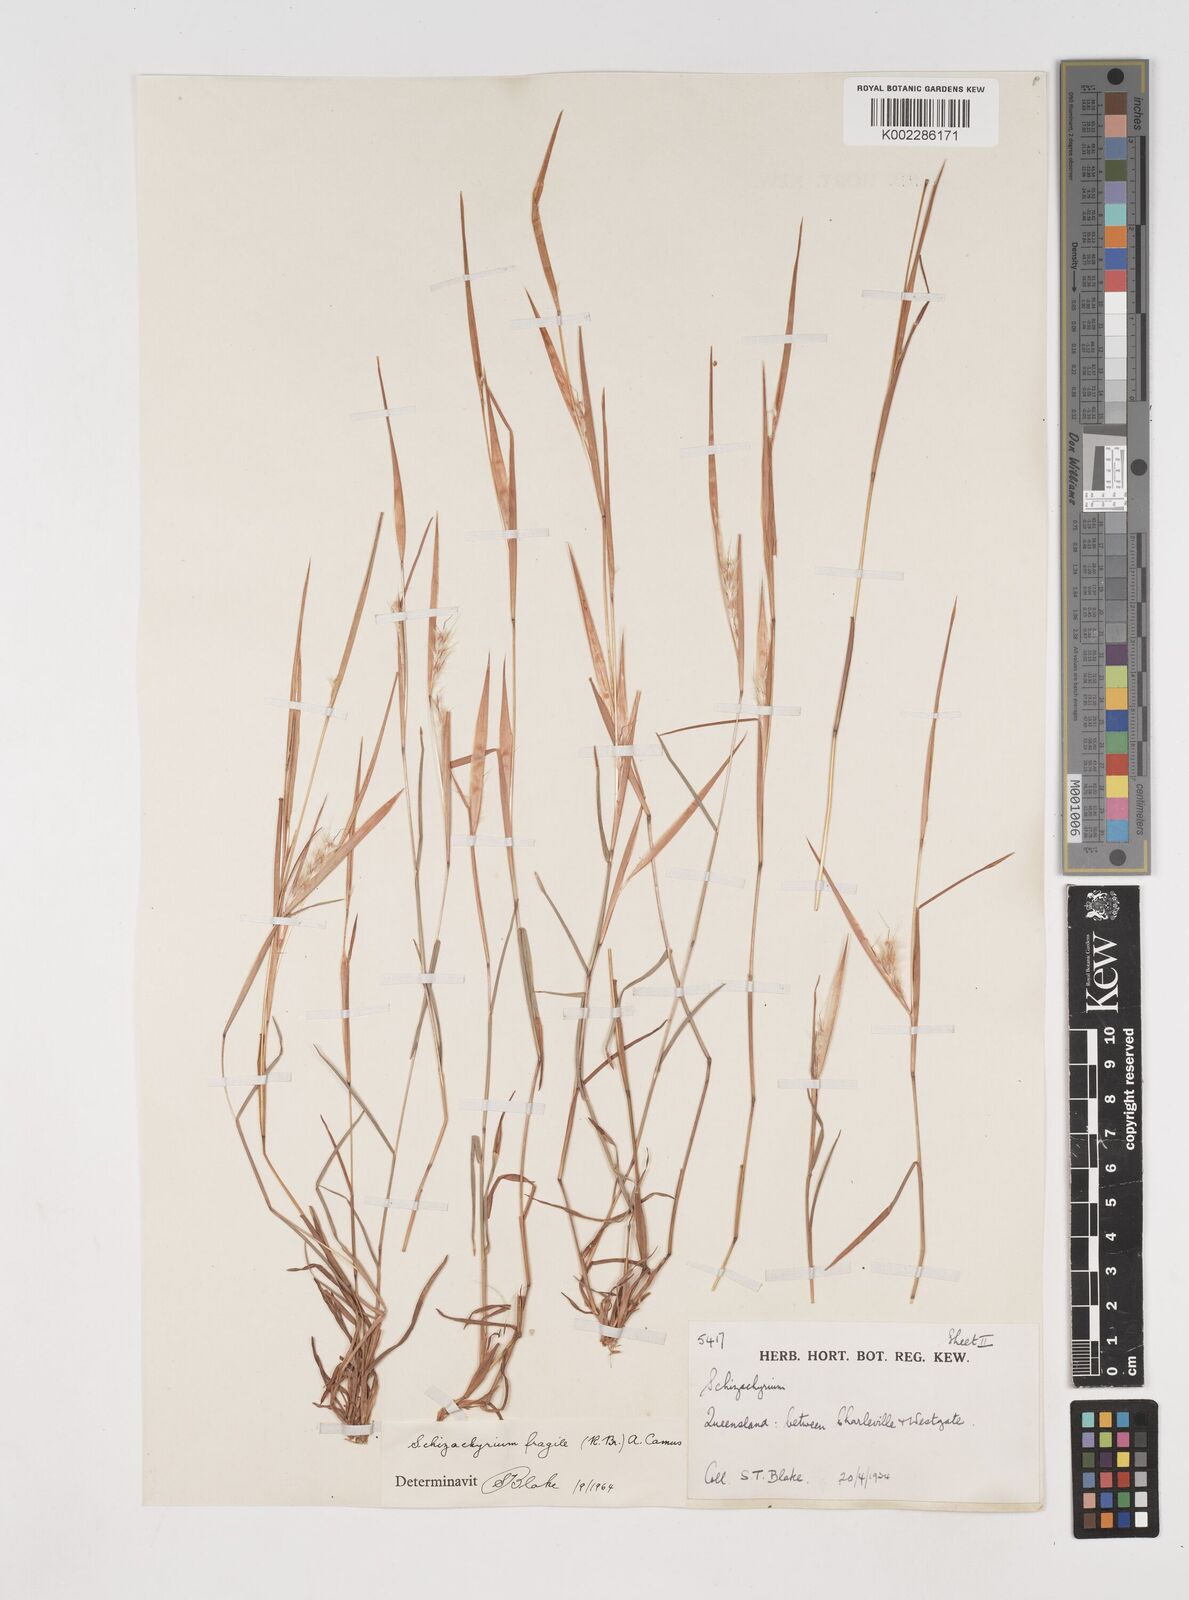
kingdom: Plantae
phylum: Tracheophyta
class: Liliopsida
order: Poales
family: Poaceae
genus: Schizachyrium
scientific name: Schizachyrium fragile
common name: Red spathe grass
